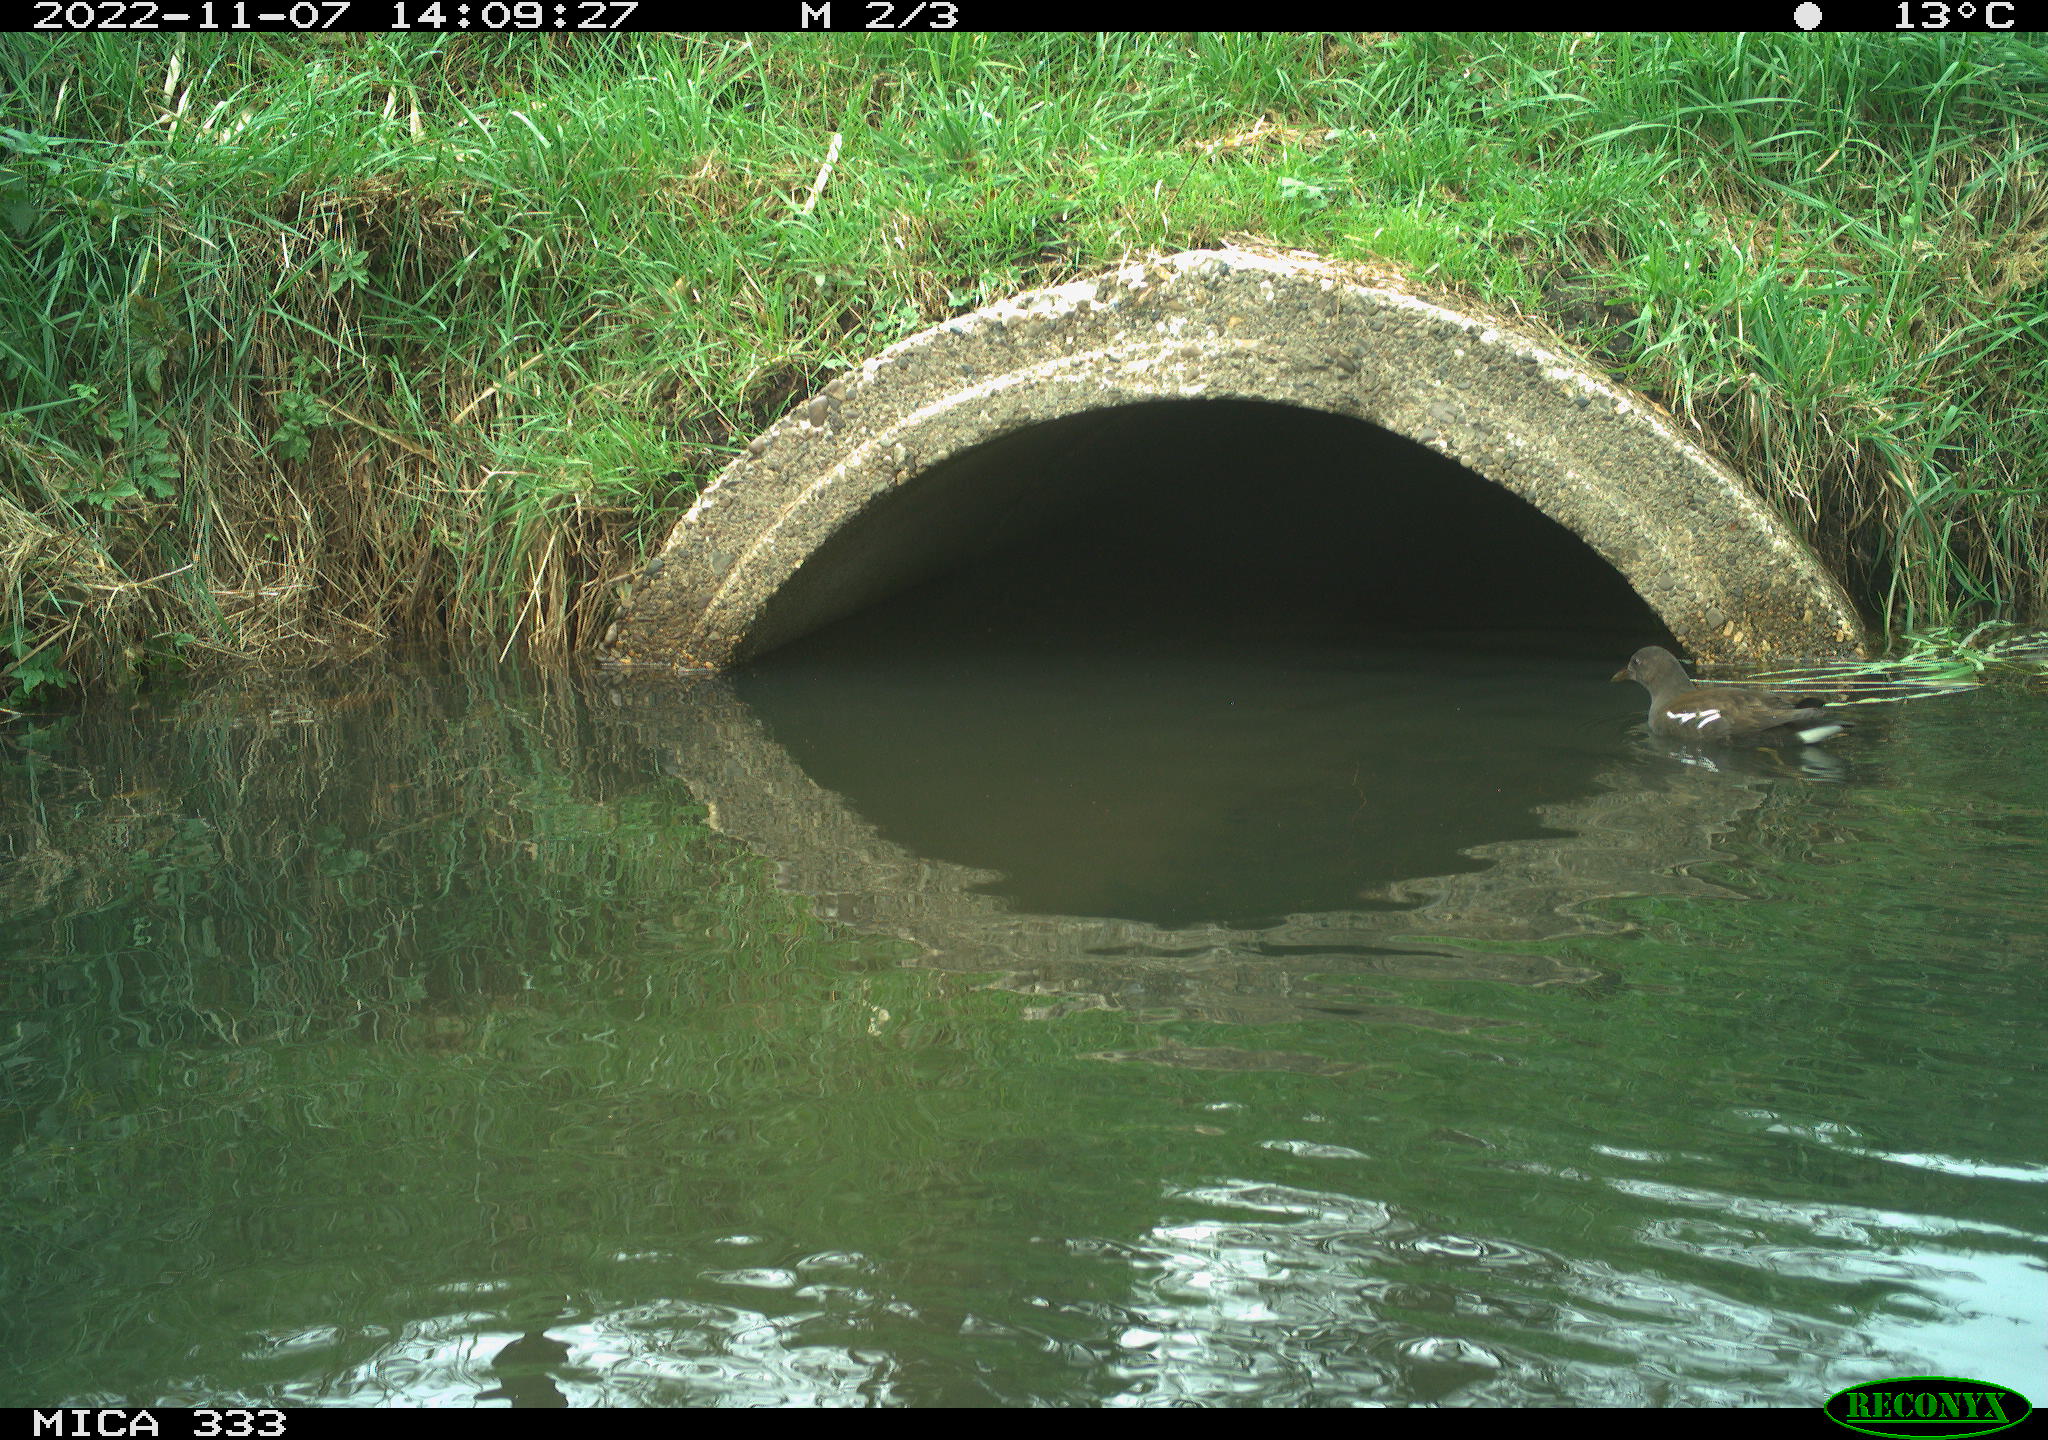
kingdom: Animalia
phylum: Chordata
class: Aves
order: Gruiformes
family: Rallidae
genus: Gallinula
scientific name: Gallinula chloropus
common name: Common moorhen
